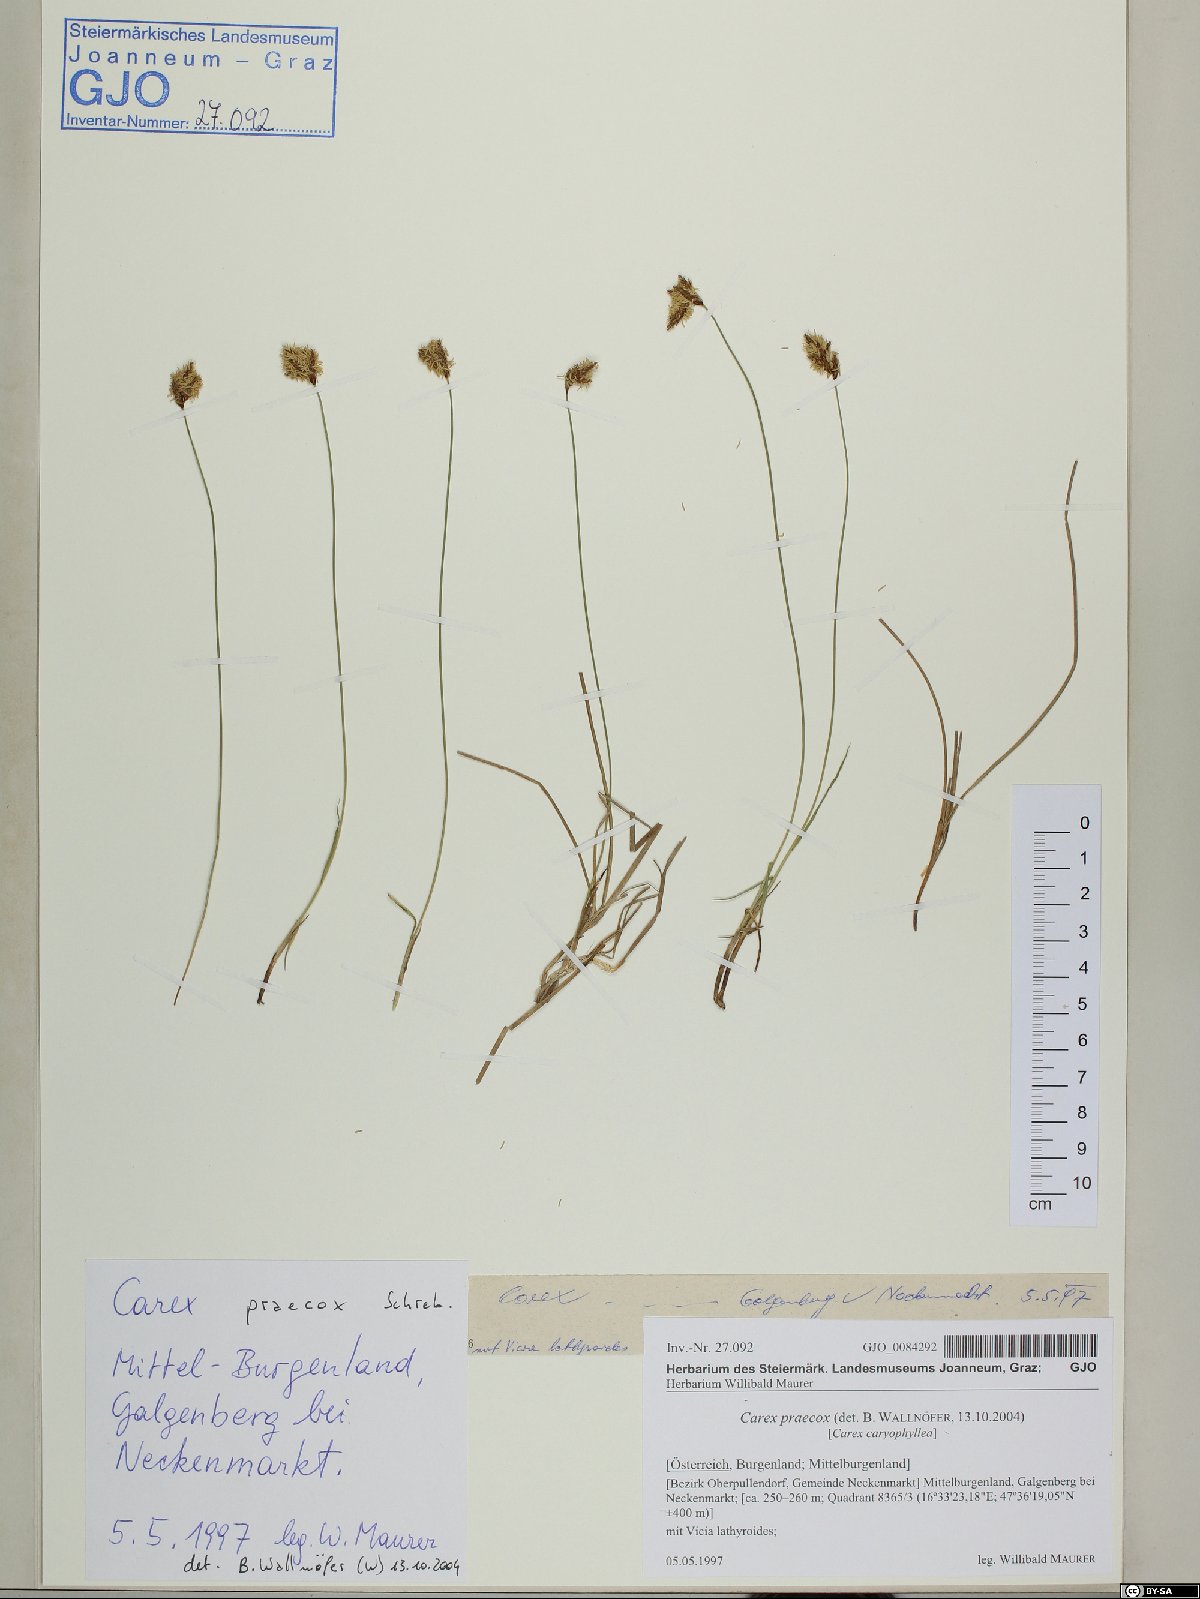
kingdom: Plantae
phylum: Tracheophyta
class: Liliopsida
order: Poales
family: Cyperaceae
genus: Carex
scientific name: Carex praecox
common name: Early sedge
